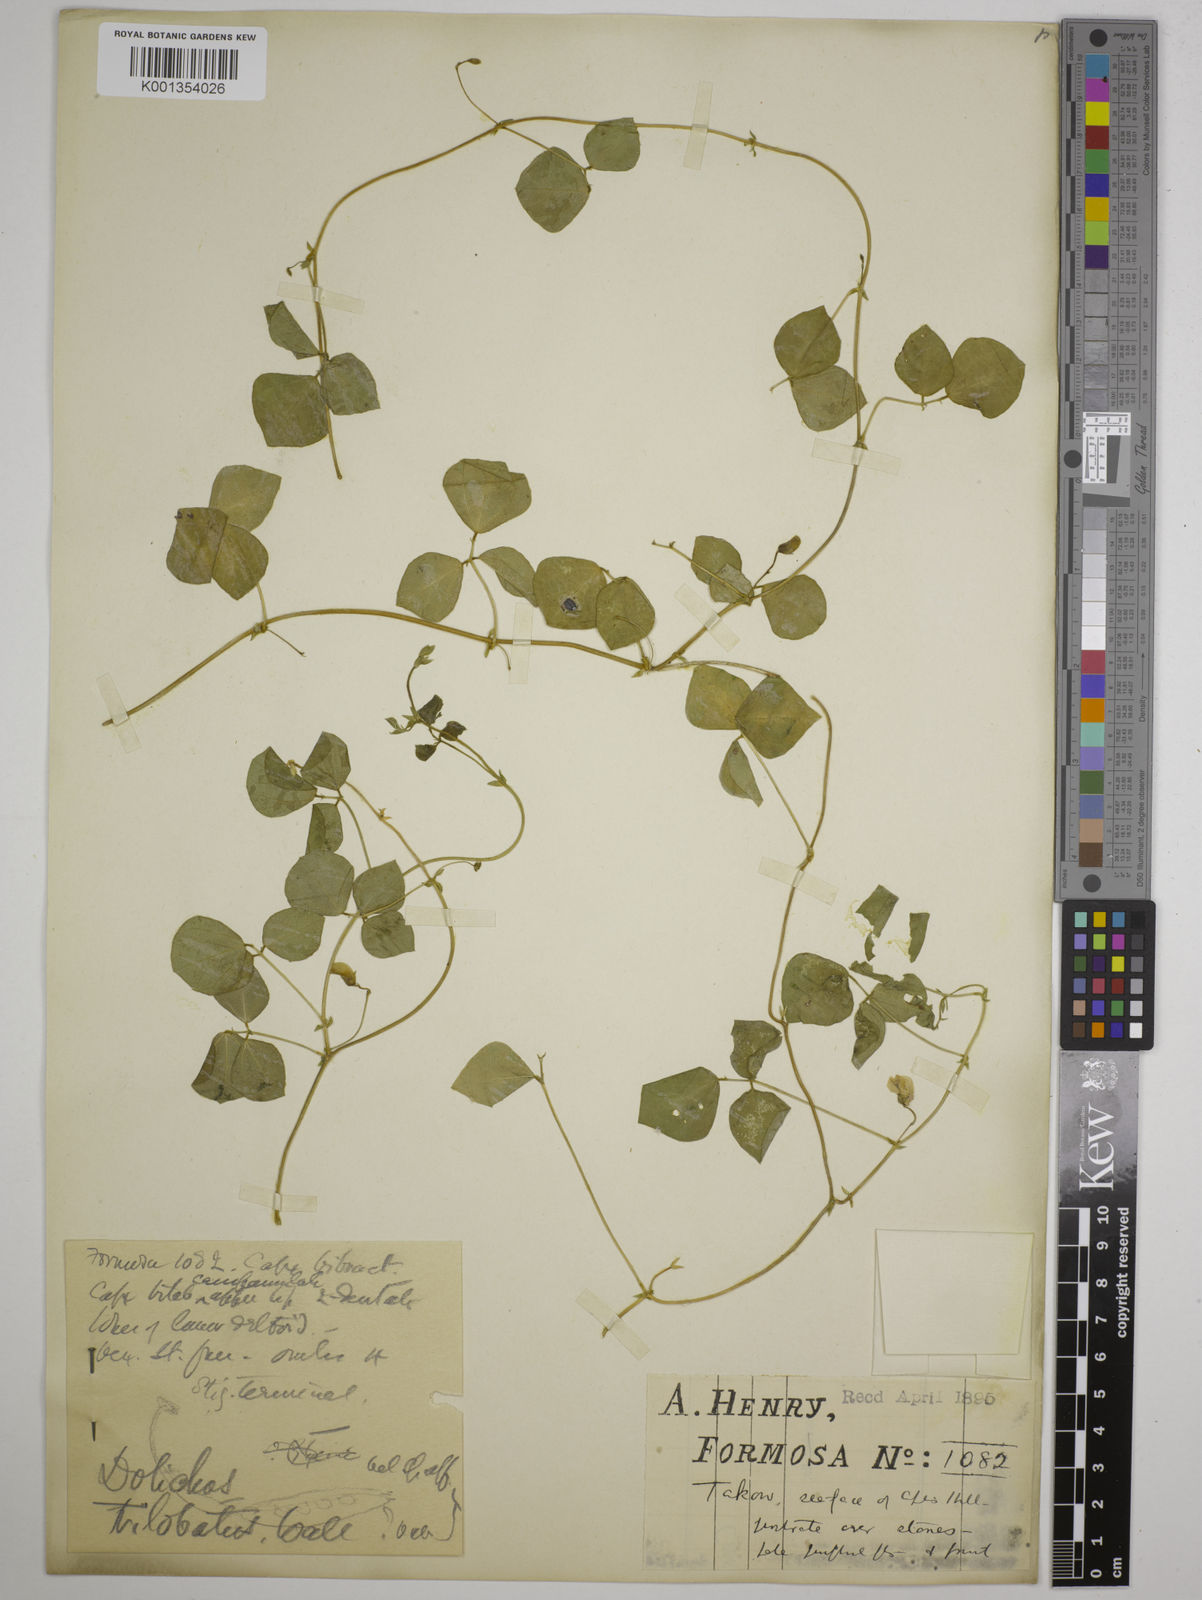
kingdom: Plantae
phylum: Tracheophyta
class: Magnoliopsida
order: Fabales
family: Fabaceae
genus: Vigna
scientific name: Vigna trilobata
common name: Jungli-bean
